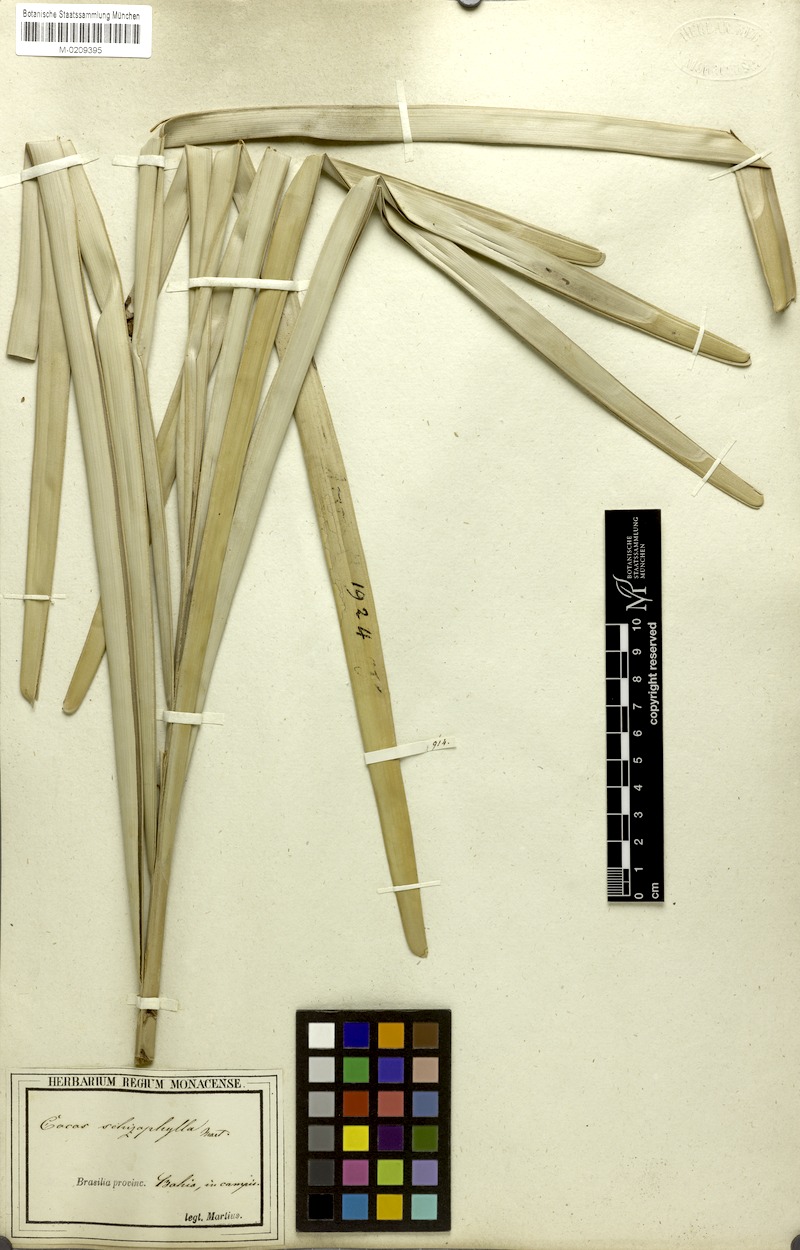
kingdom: Plantae
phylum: Tracheophyta
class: Liliopsida
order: Arecales
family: Arecaceae
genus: Syagrus
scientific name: Syagrus schizophylla
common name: Arikury palm
